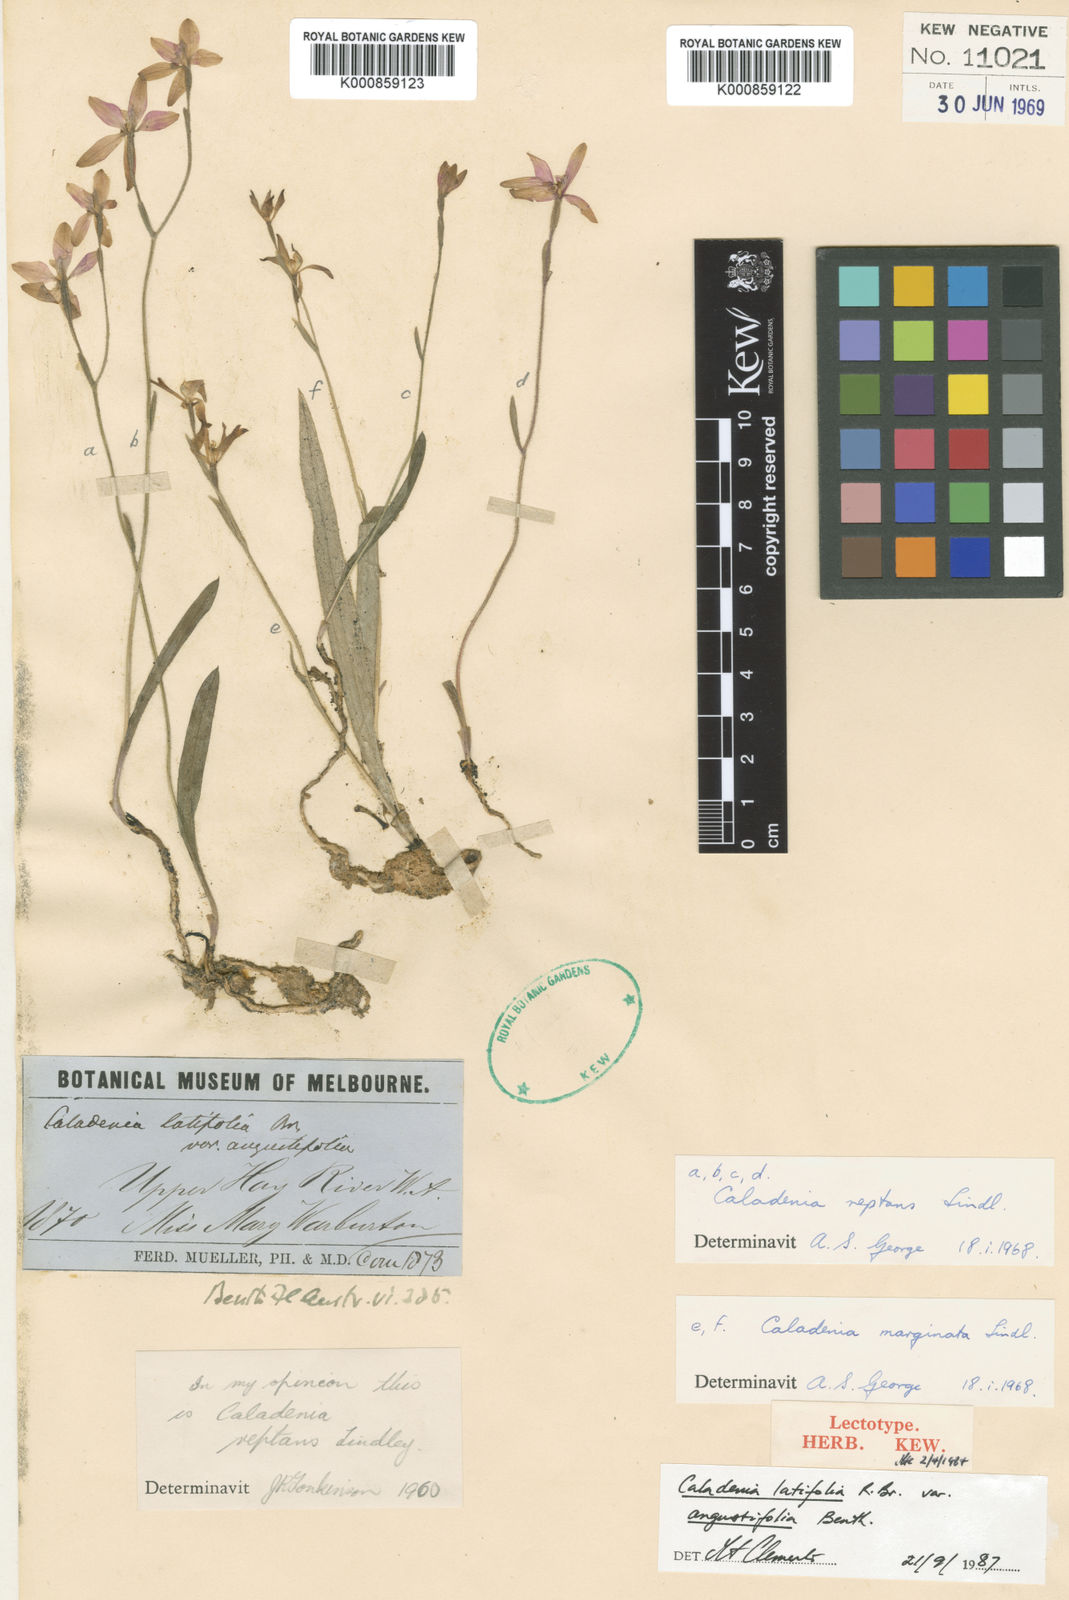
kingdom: Plantae
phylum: Tracheophyta
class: Liliopsida
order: Asparagales
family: Orchidaceae
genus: Caladenia
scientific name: Caladenia latifolia
